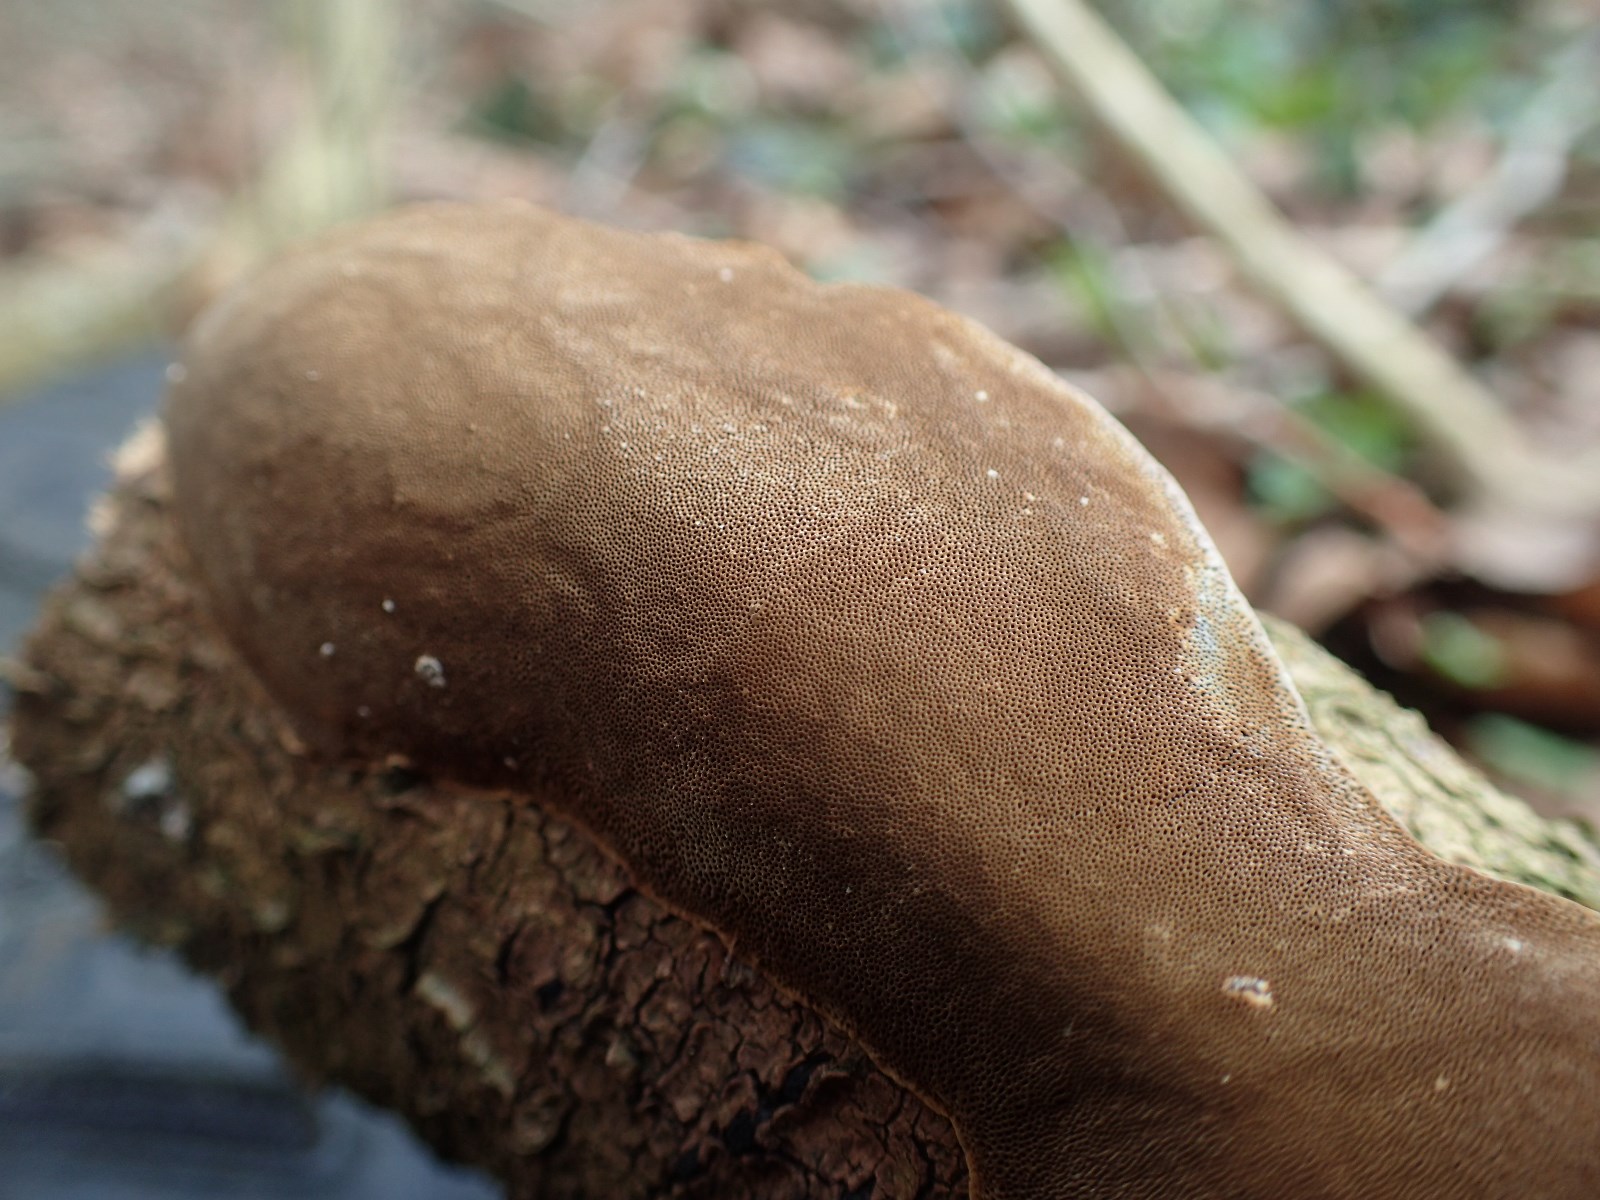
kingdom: Fungi
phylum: Basidiomycota
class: Agaricomycetes
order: Hymenochaetales
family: Hymenochaetaceae
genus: Fomitiporia
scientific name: Fomitiporia punctata
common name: pude-ildporesvamp
